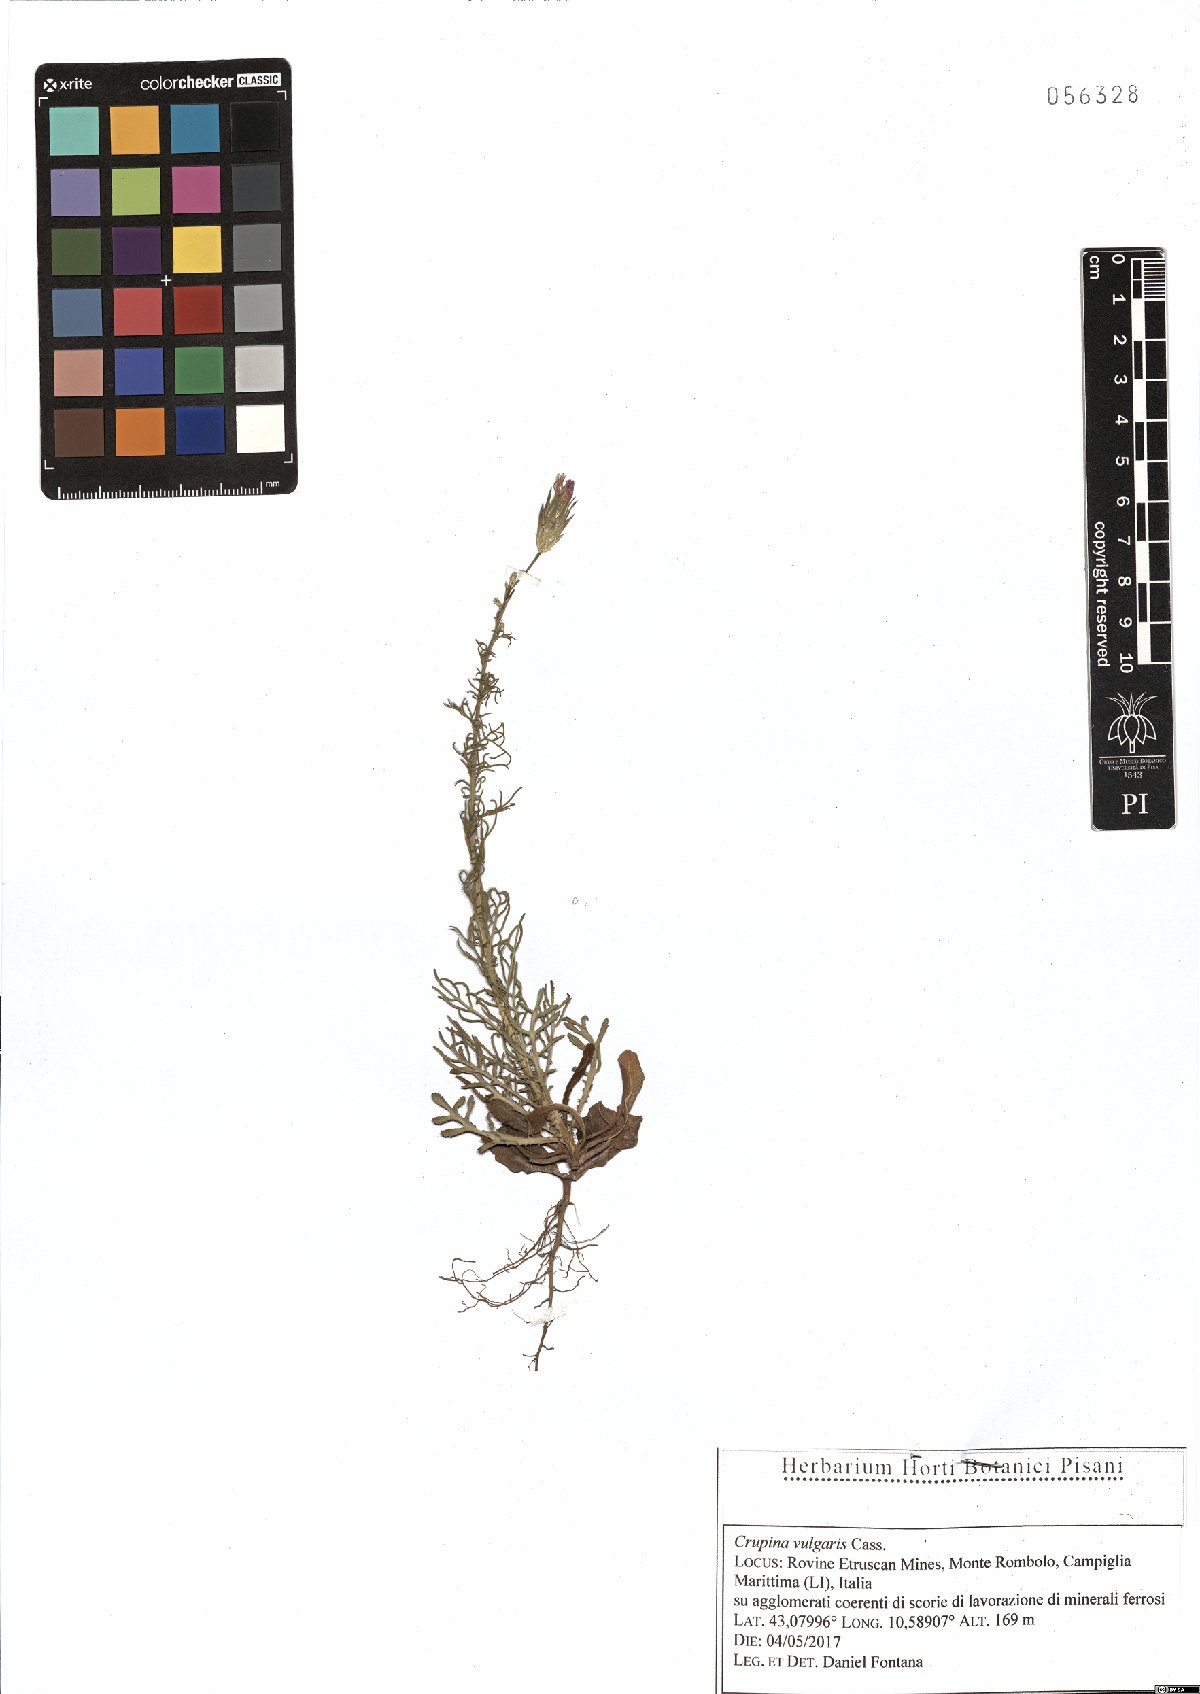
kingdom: Plantae
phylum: Tracheophyta
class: Magnoliopsida
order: Asterales
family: Asteraceae
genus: Crupina
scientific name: Crupina vulgaris
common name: Common crupina
